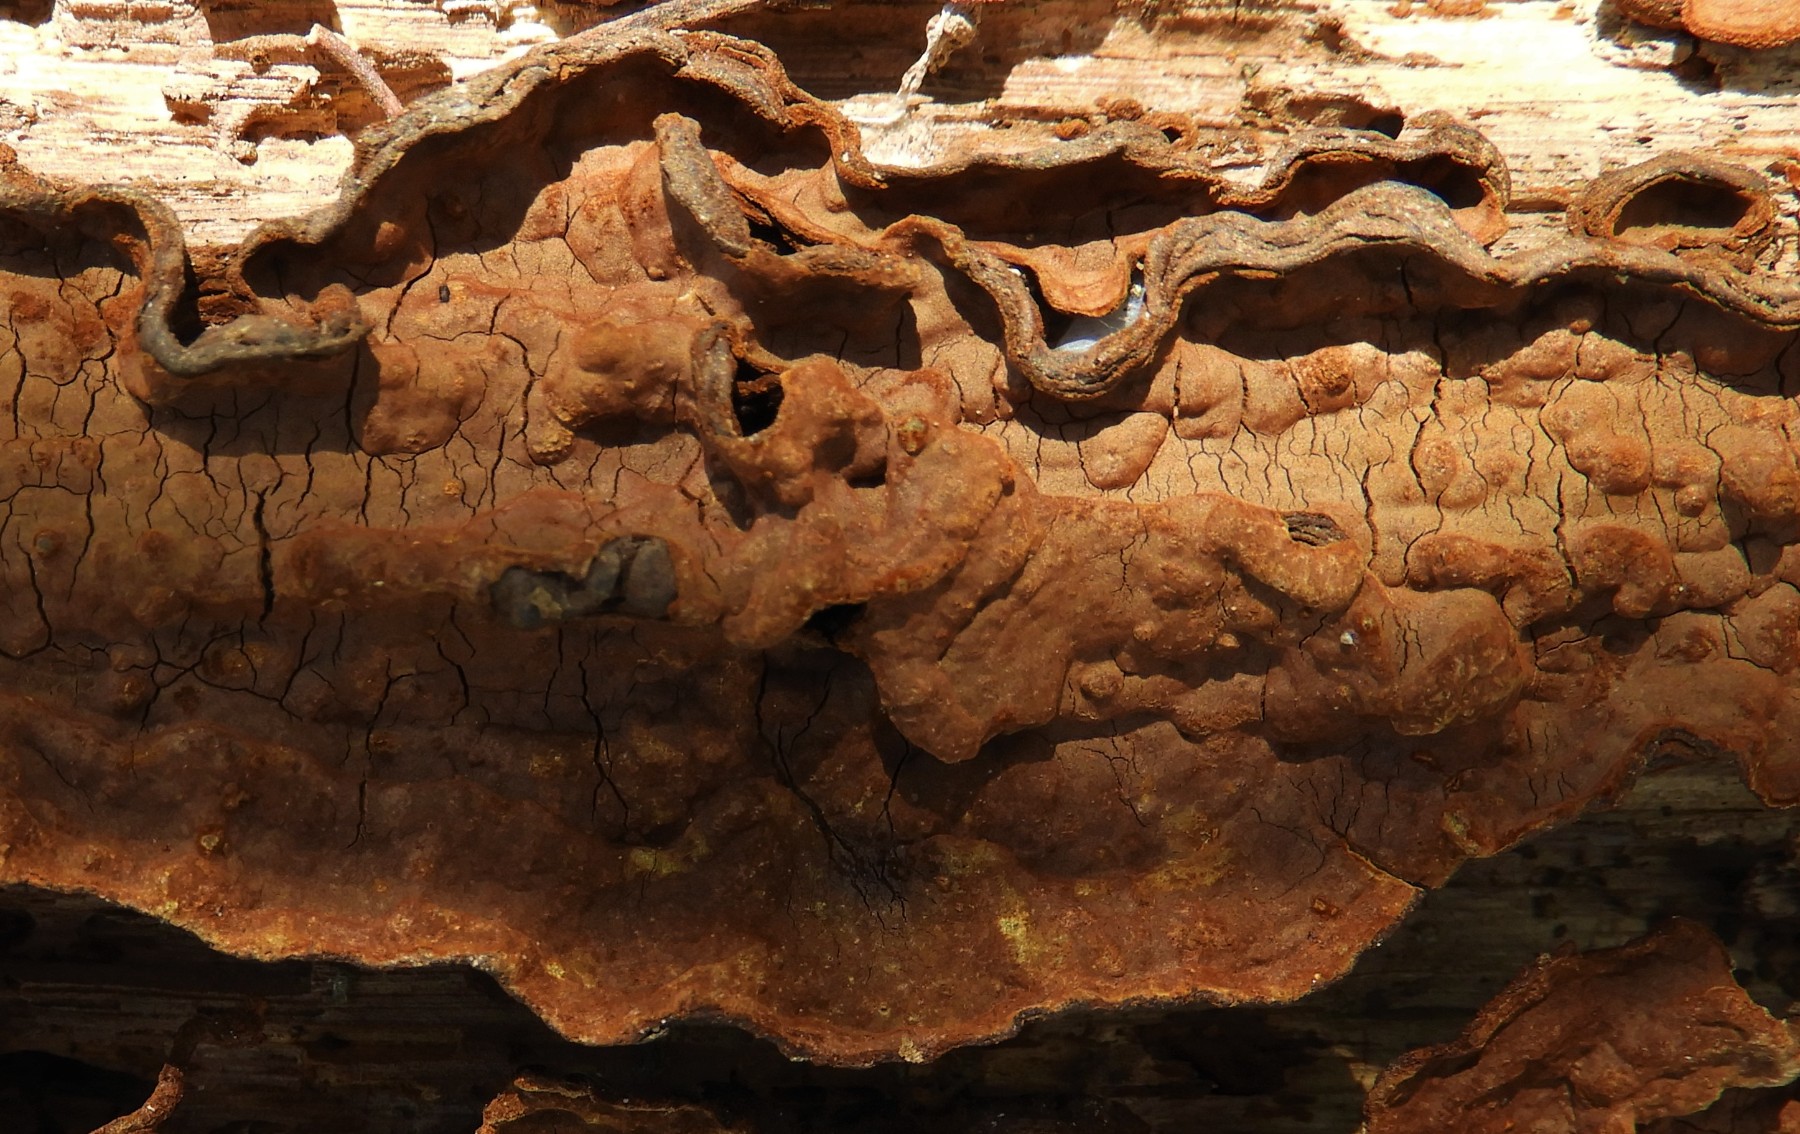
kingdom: Fungi
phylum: Basidiomycota
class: Agaricomycetes
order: Hymenochaetales
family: Hymenochaetaceae
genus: Hymenochaete
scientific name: Hymenochaete rubiginosa
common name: stiv ruslædersvamp
